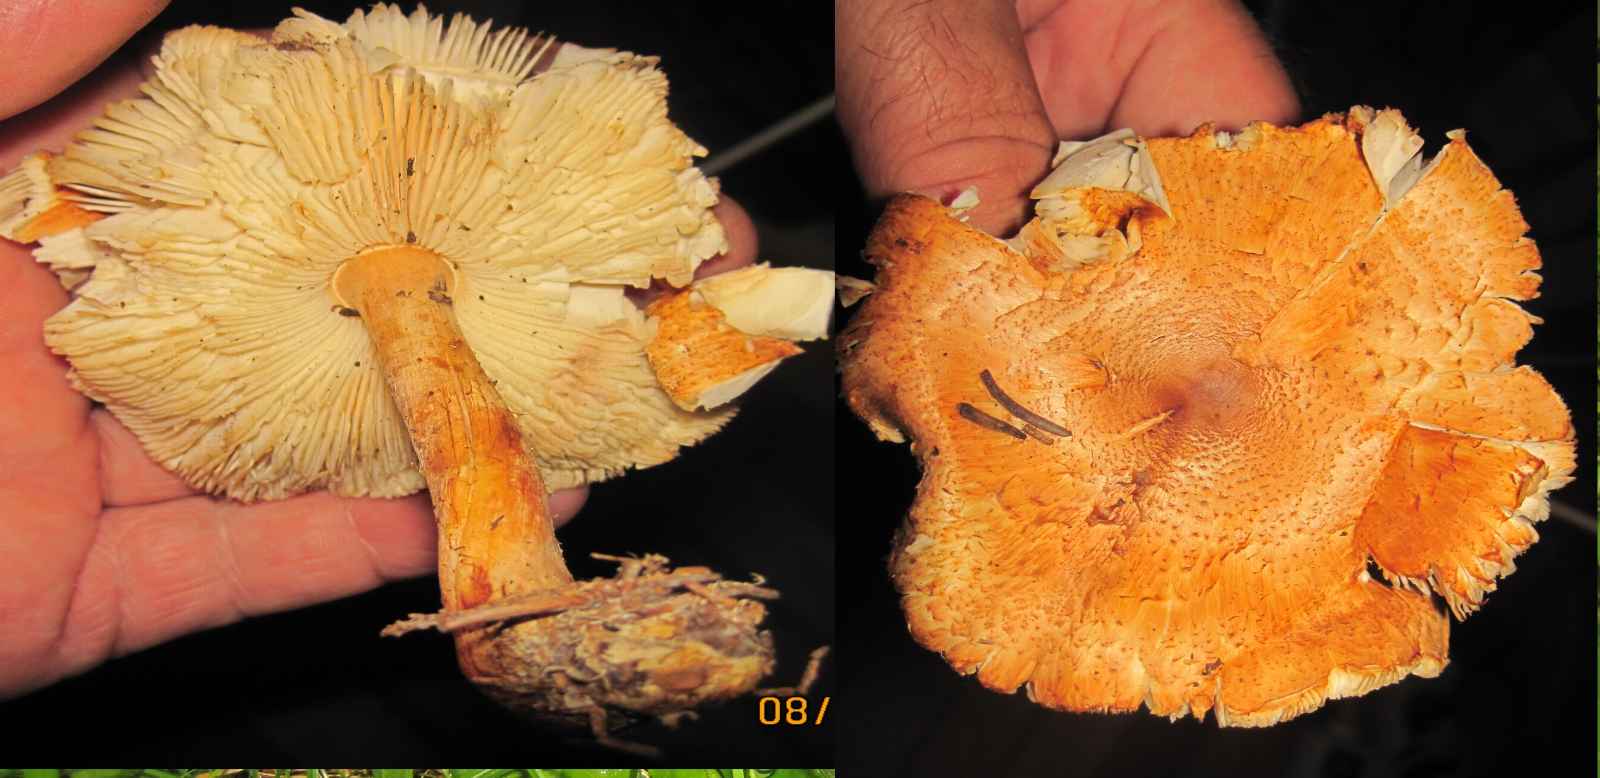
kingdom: Fungi
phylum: Basidiomycota
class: Agaricomycetes
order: Agaricales
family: Agaricaceae
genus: Lepiota
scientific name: Lepiota ochraceofulva
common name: sødtduftende parasolhat
